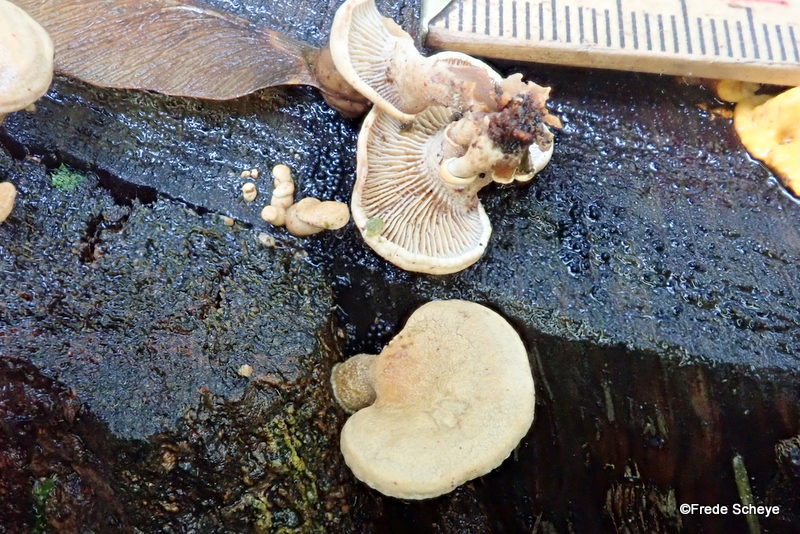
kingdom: Fungi
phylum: Basidiomycota
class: Agaricomycetes
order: Agaricales
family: Mycenaceae
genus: Panellus
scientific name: Panellus stipticus
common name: kliddet epaulethat
